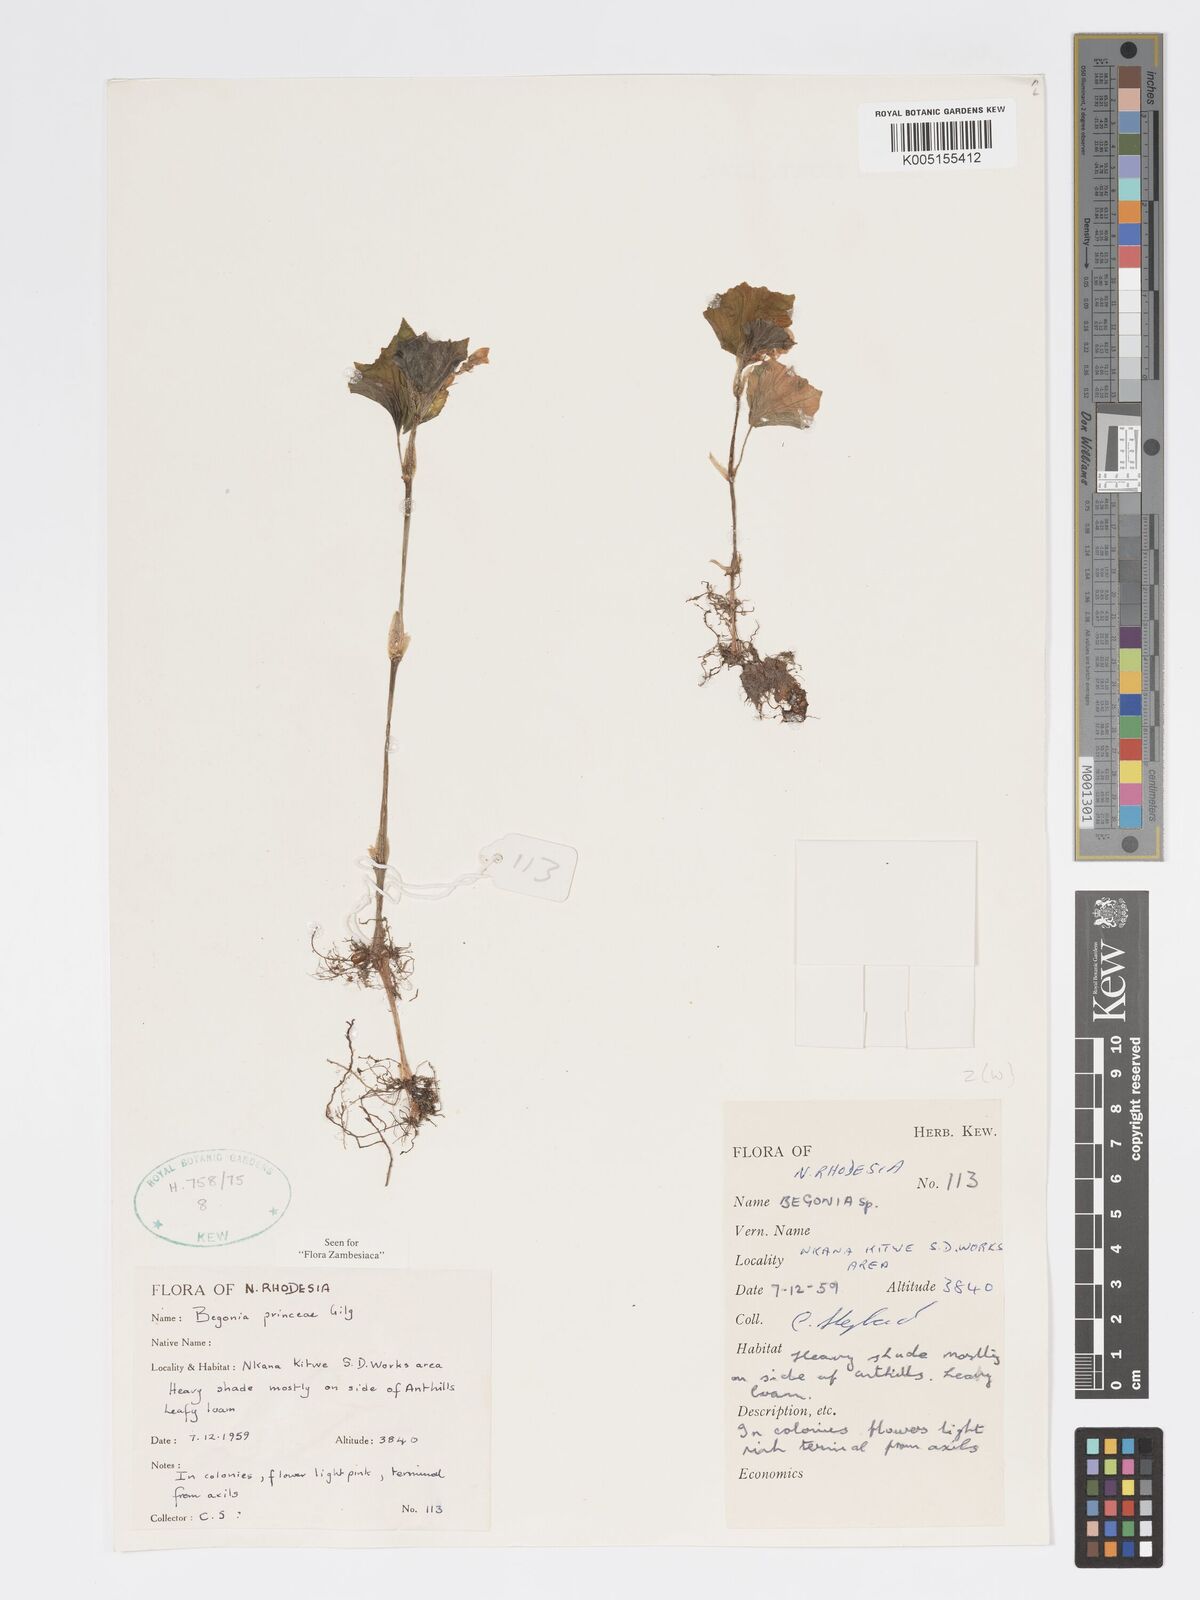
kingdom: Plantae
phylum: Tracheophyta
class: Magnoliopsida
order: Cucurbitales
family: Begoniaceae
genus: Begonia
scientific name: Begonia princeae
